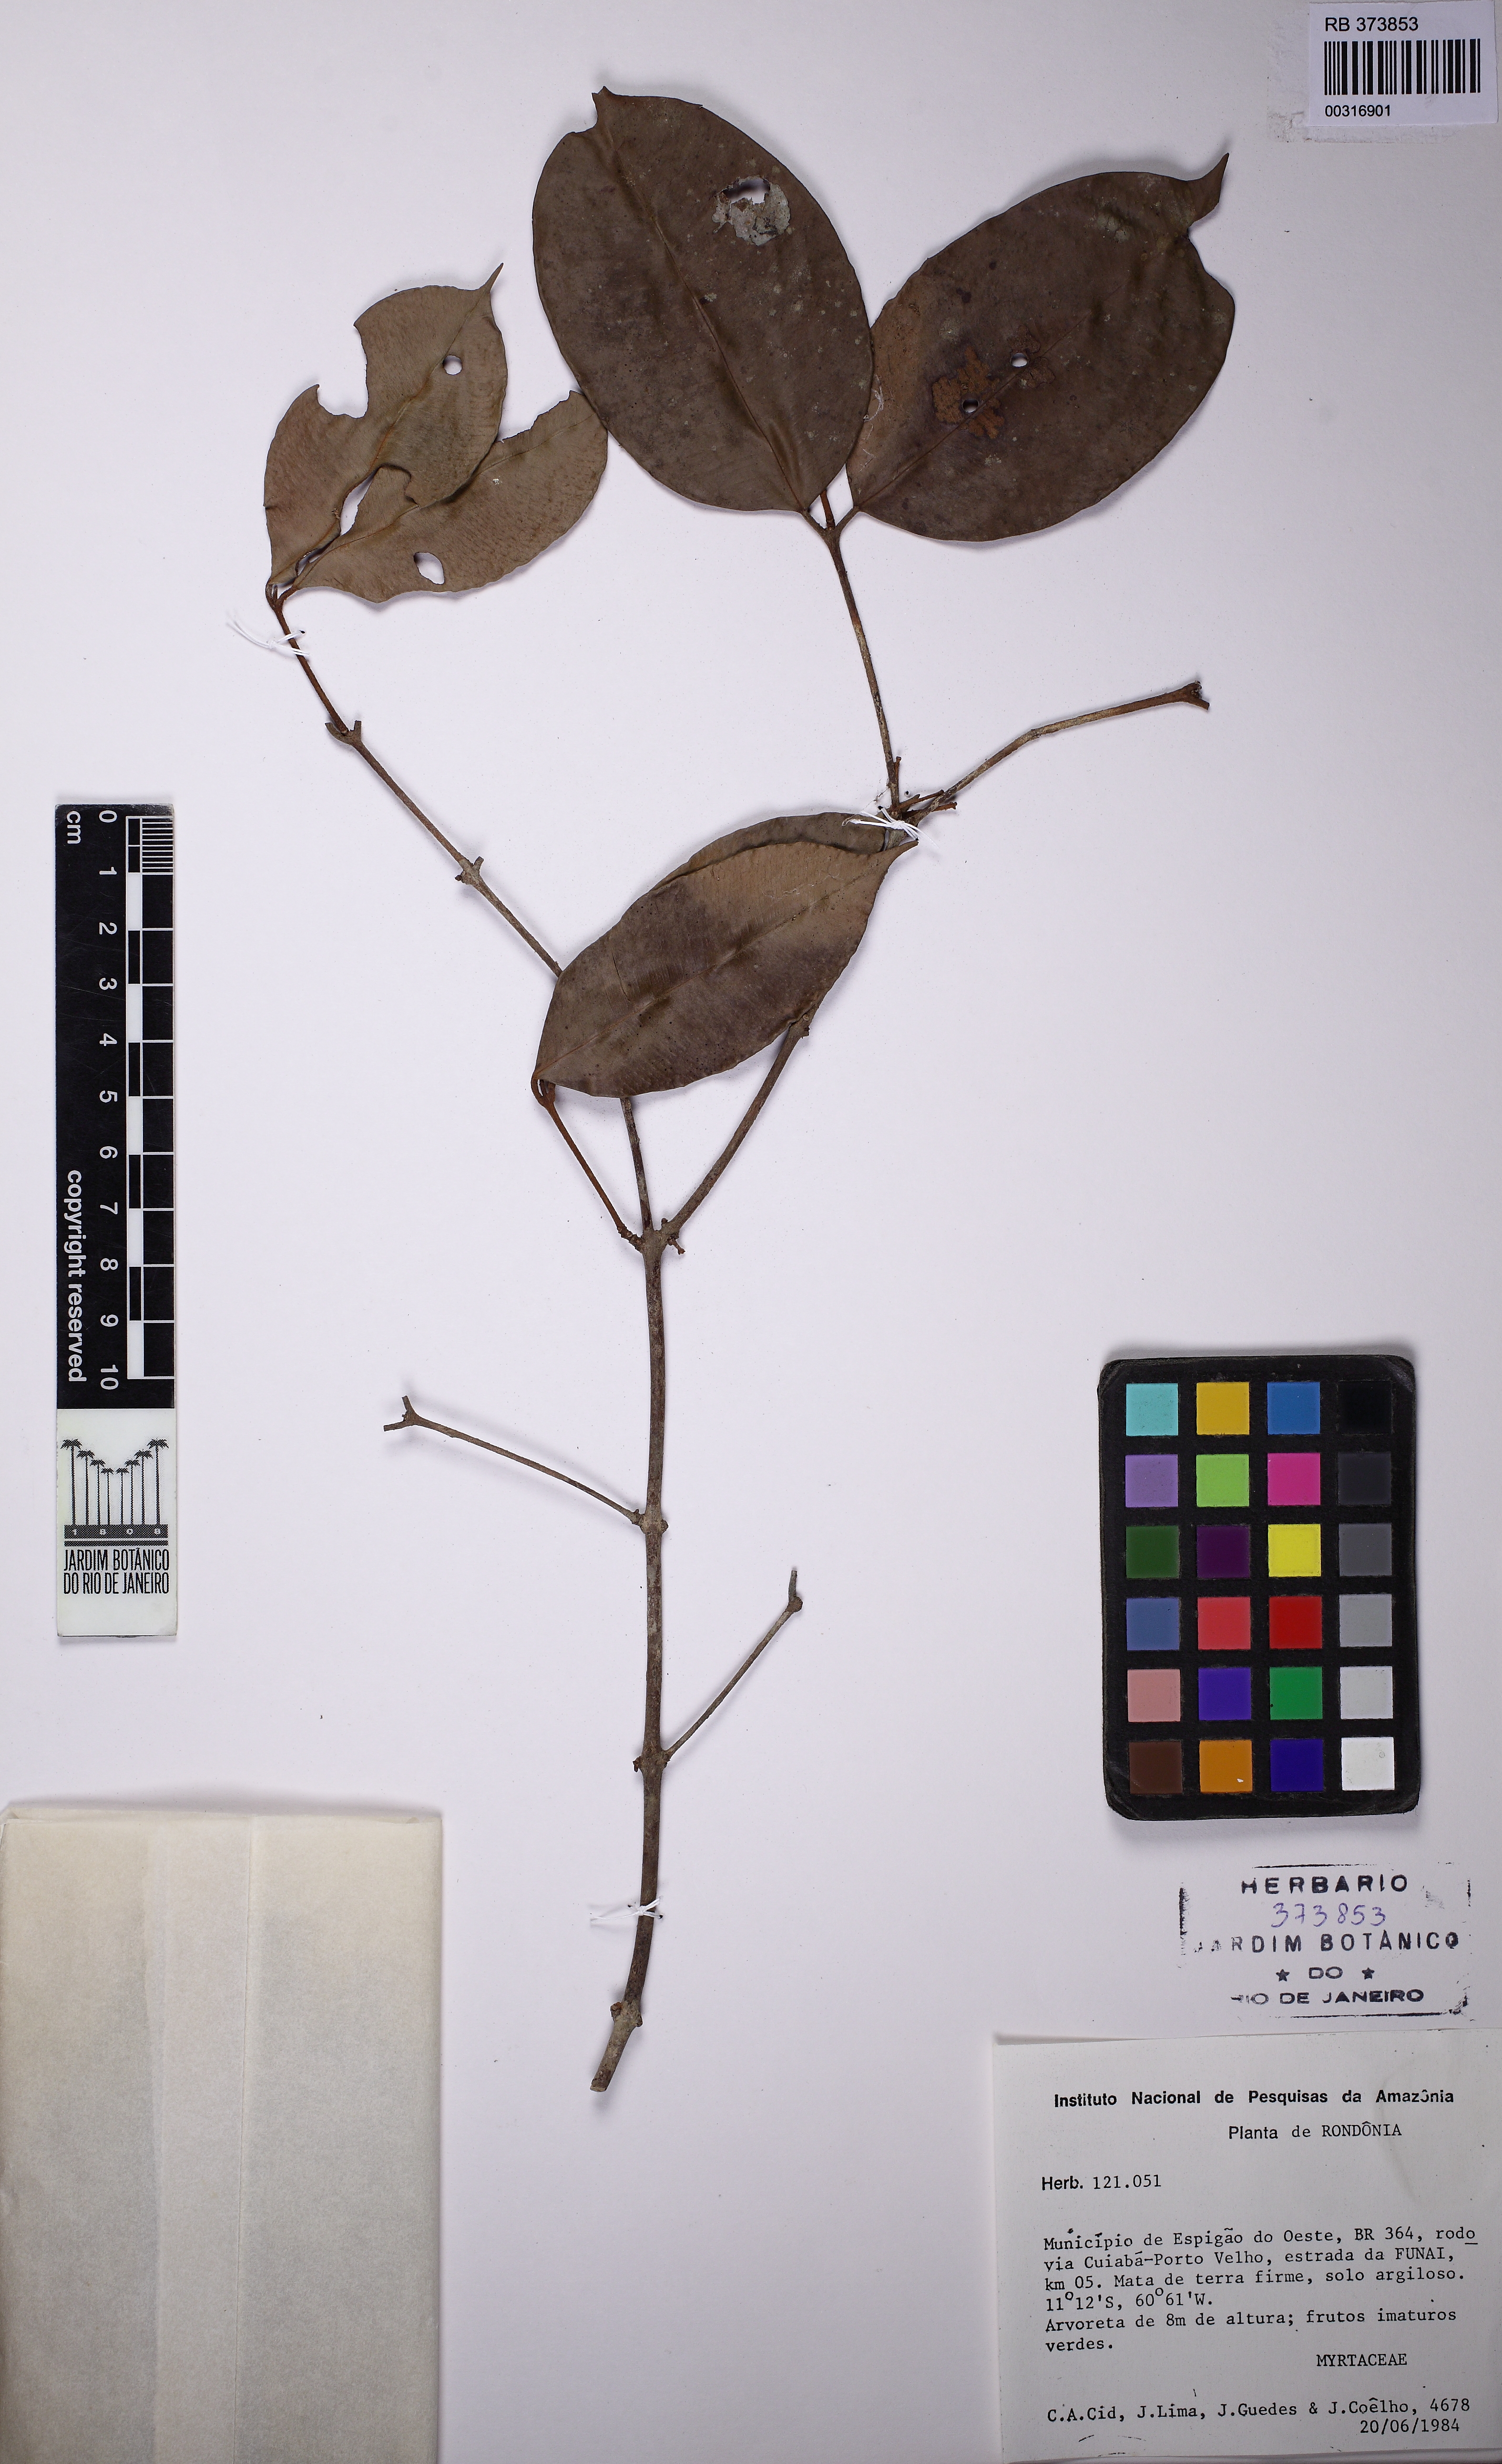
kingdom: Plantae
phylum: Tracheophyta
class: Magnoliopsida
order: Myrtales
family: Myrtaceae
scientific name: Myrtaceae
